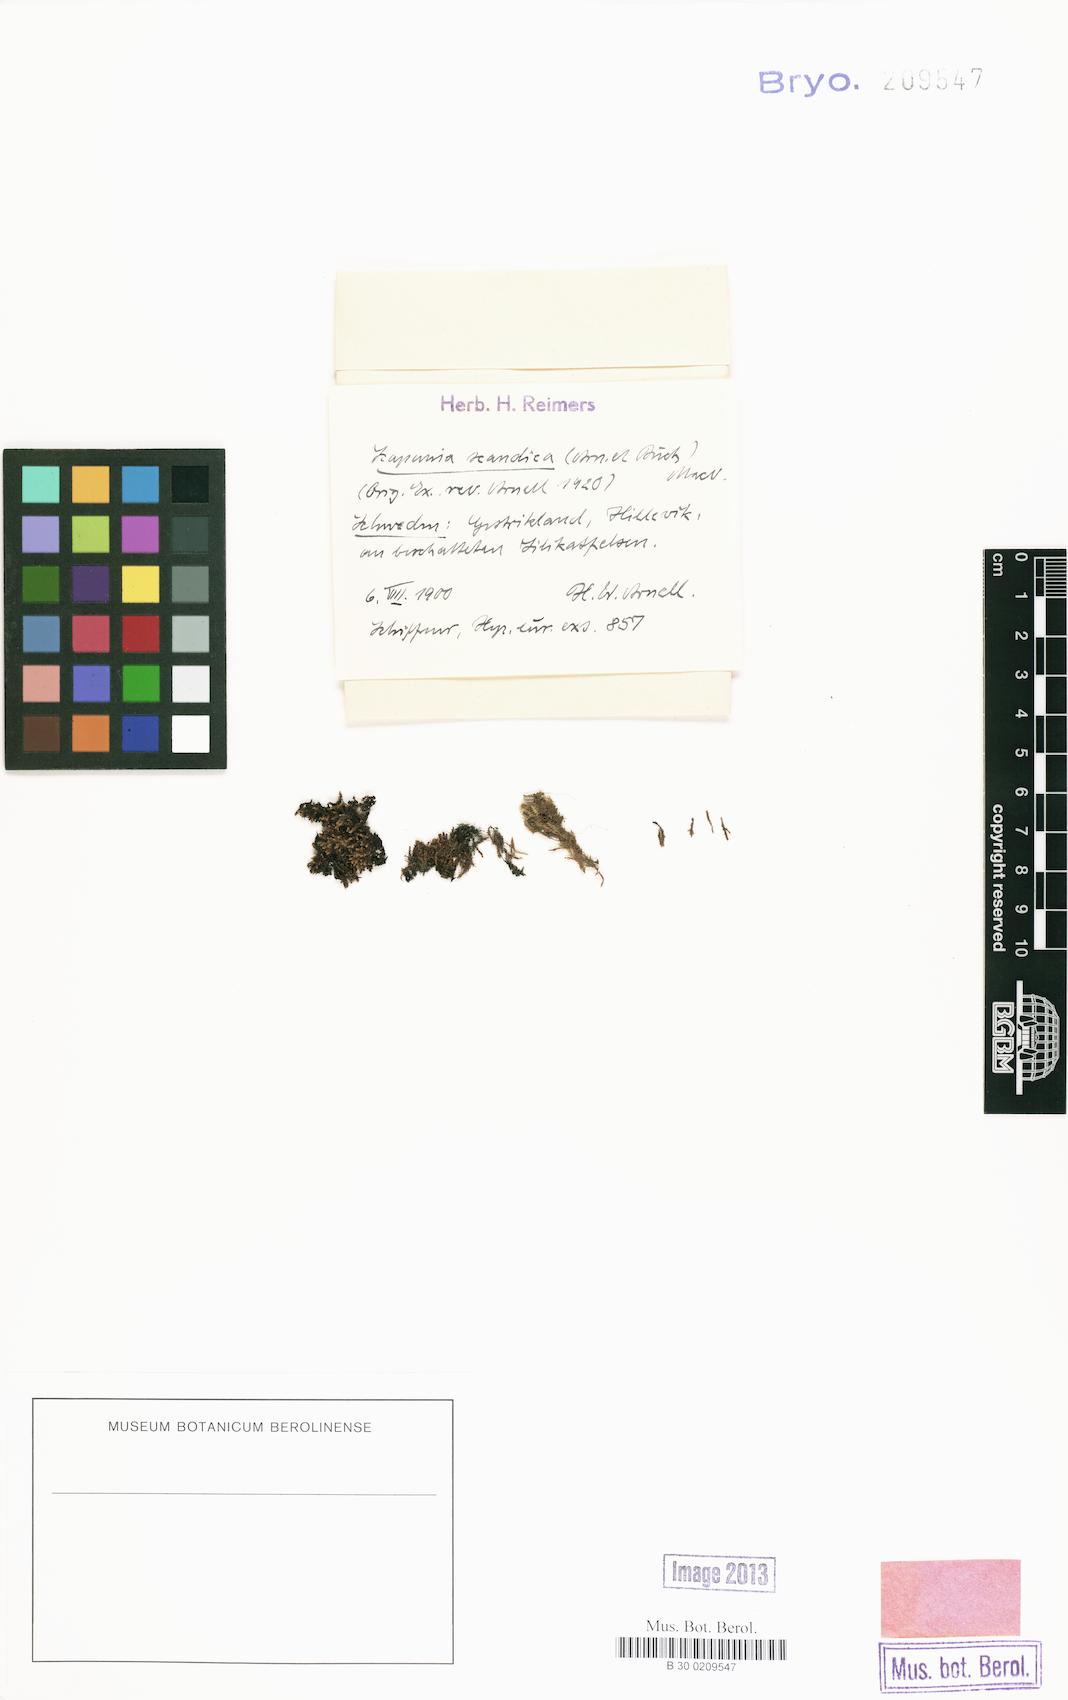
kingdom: Plantae
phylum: Marchantiophyta
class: Jungermanniopsida
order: Jungermanniales
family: Scapaniaceae
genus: Scapania
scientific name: Scapania scandica
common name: Norwegian earwort
